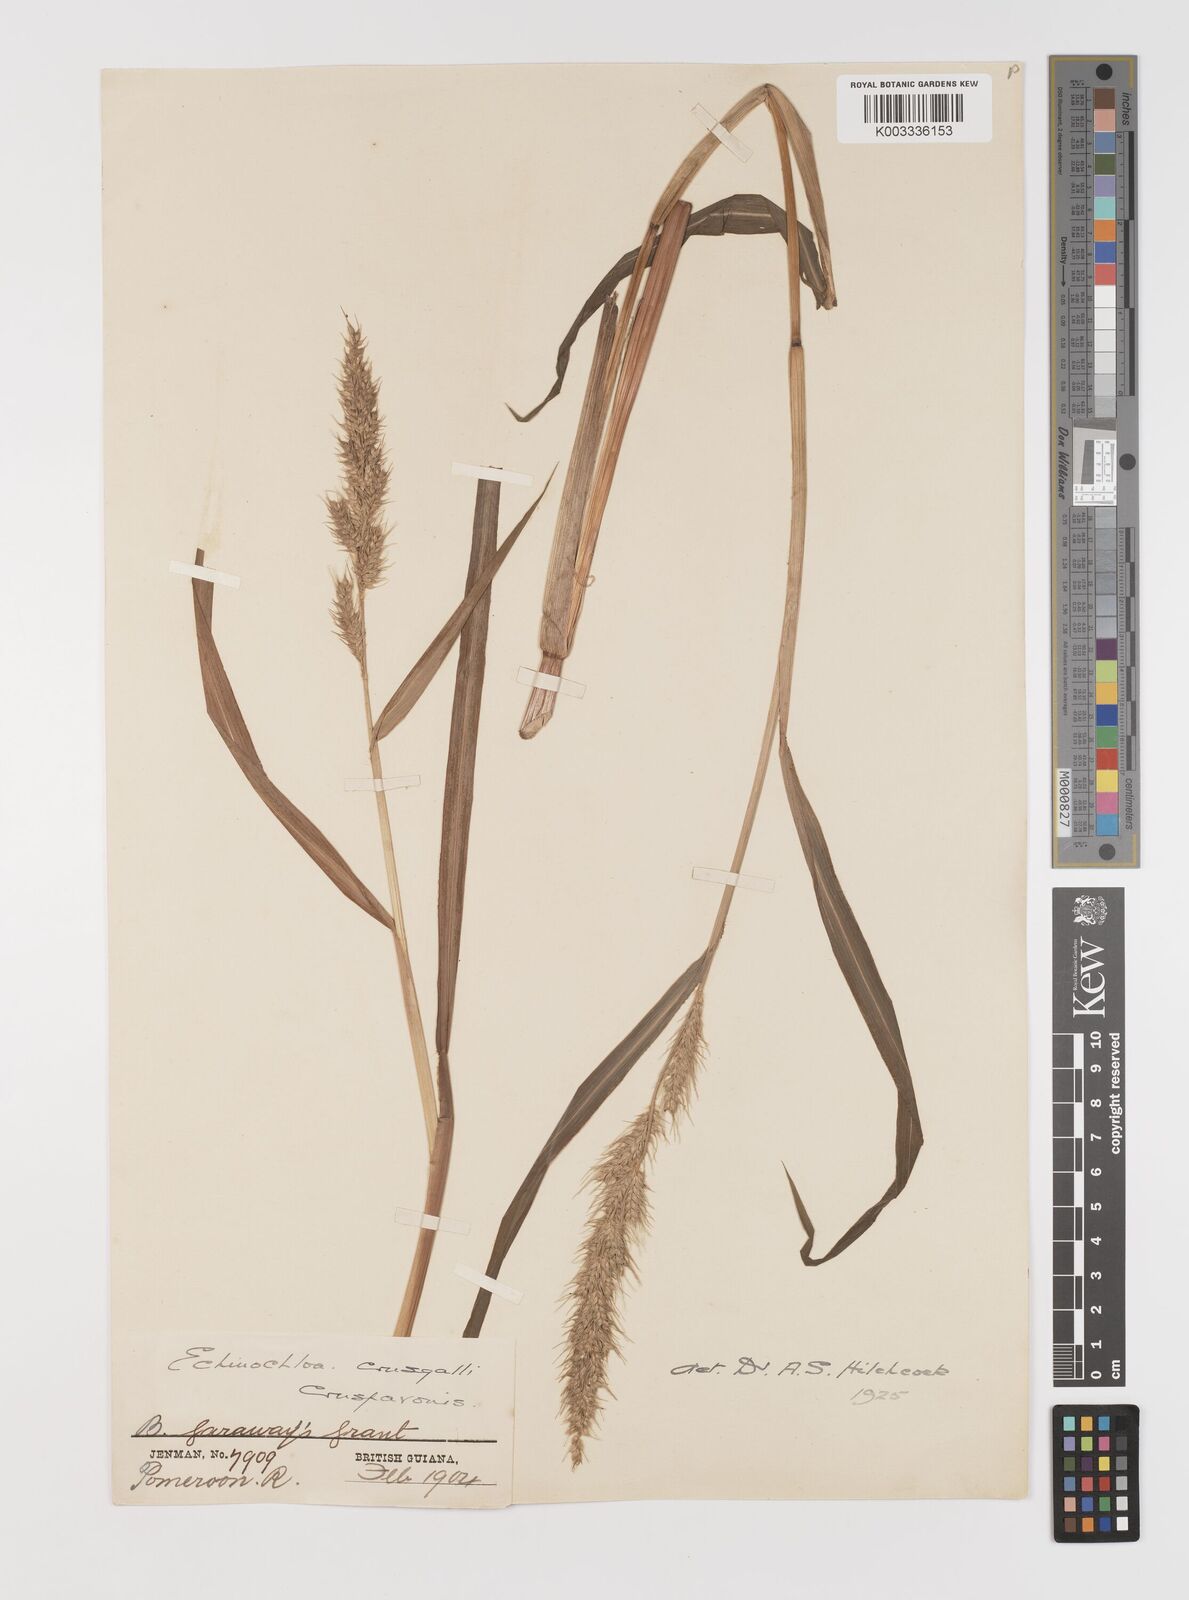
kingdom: Plantae
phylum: Tracheophyta
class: Liliopsida
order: Poales
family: Poaceae
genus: Echinochloa
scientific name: Echinochloa crus-pavonis
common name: Gulf cockspur grass
